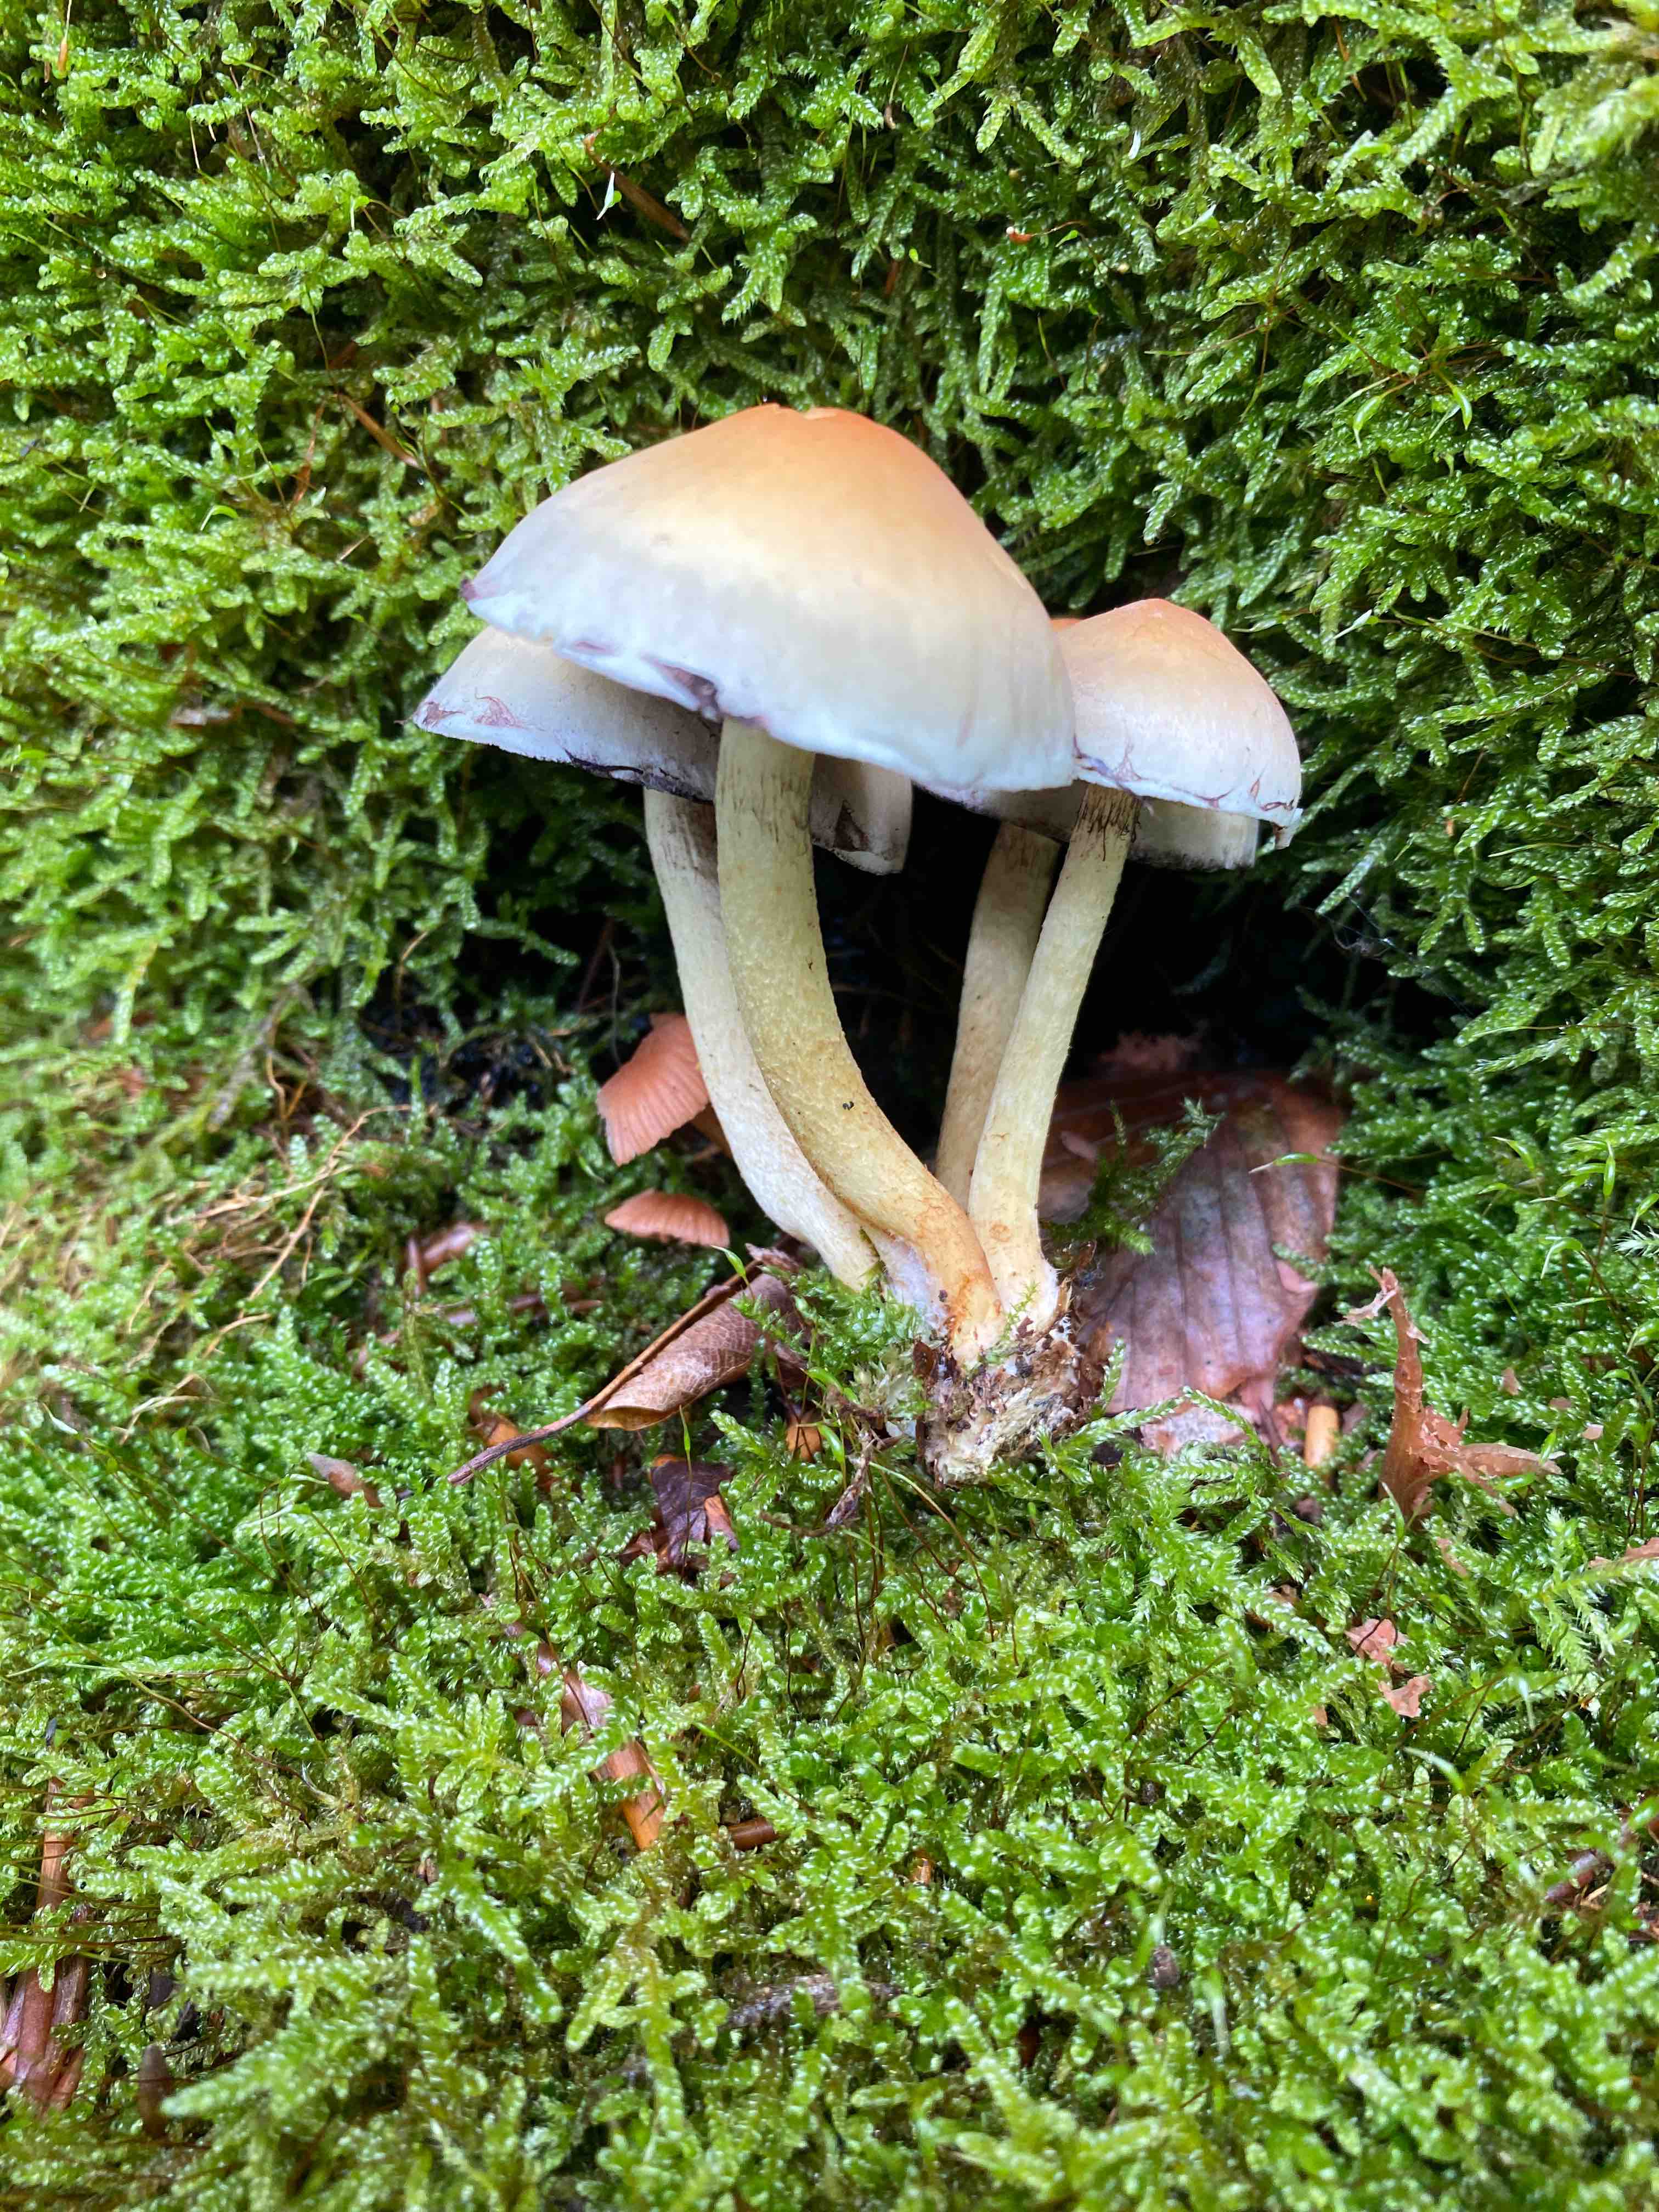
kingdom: Fungi
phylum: Basidiomycota
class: Agaricomycetes
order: Agaricales
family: Strophariaceae
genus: Hypholoma
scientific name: Hypholoma fasciculare
